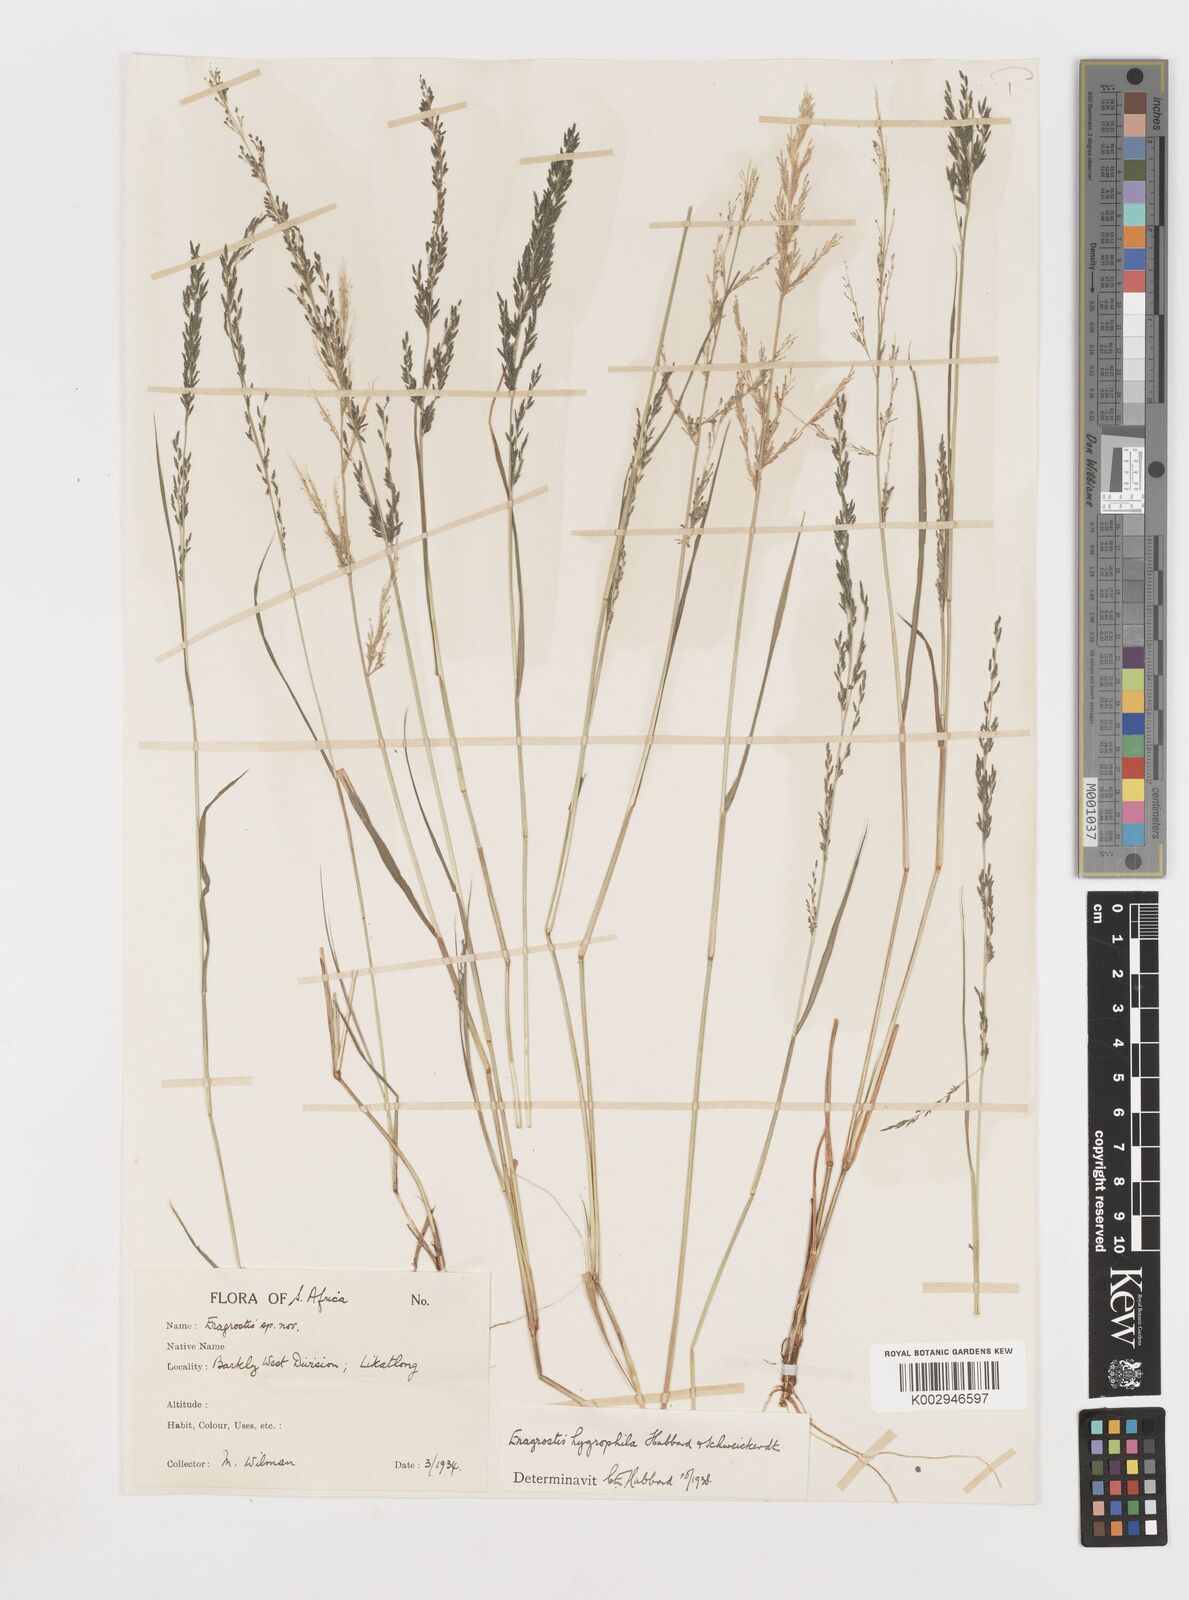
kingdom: Plantae
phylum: Tracheophyta
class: Liliopsida
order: Poales
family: Poaceae
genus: Eragrostis
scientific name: Eragrostis homomalla
